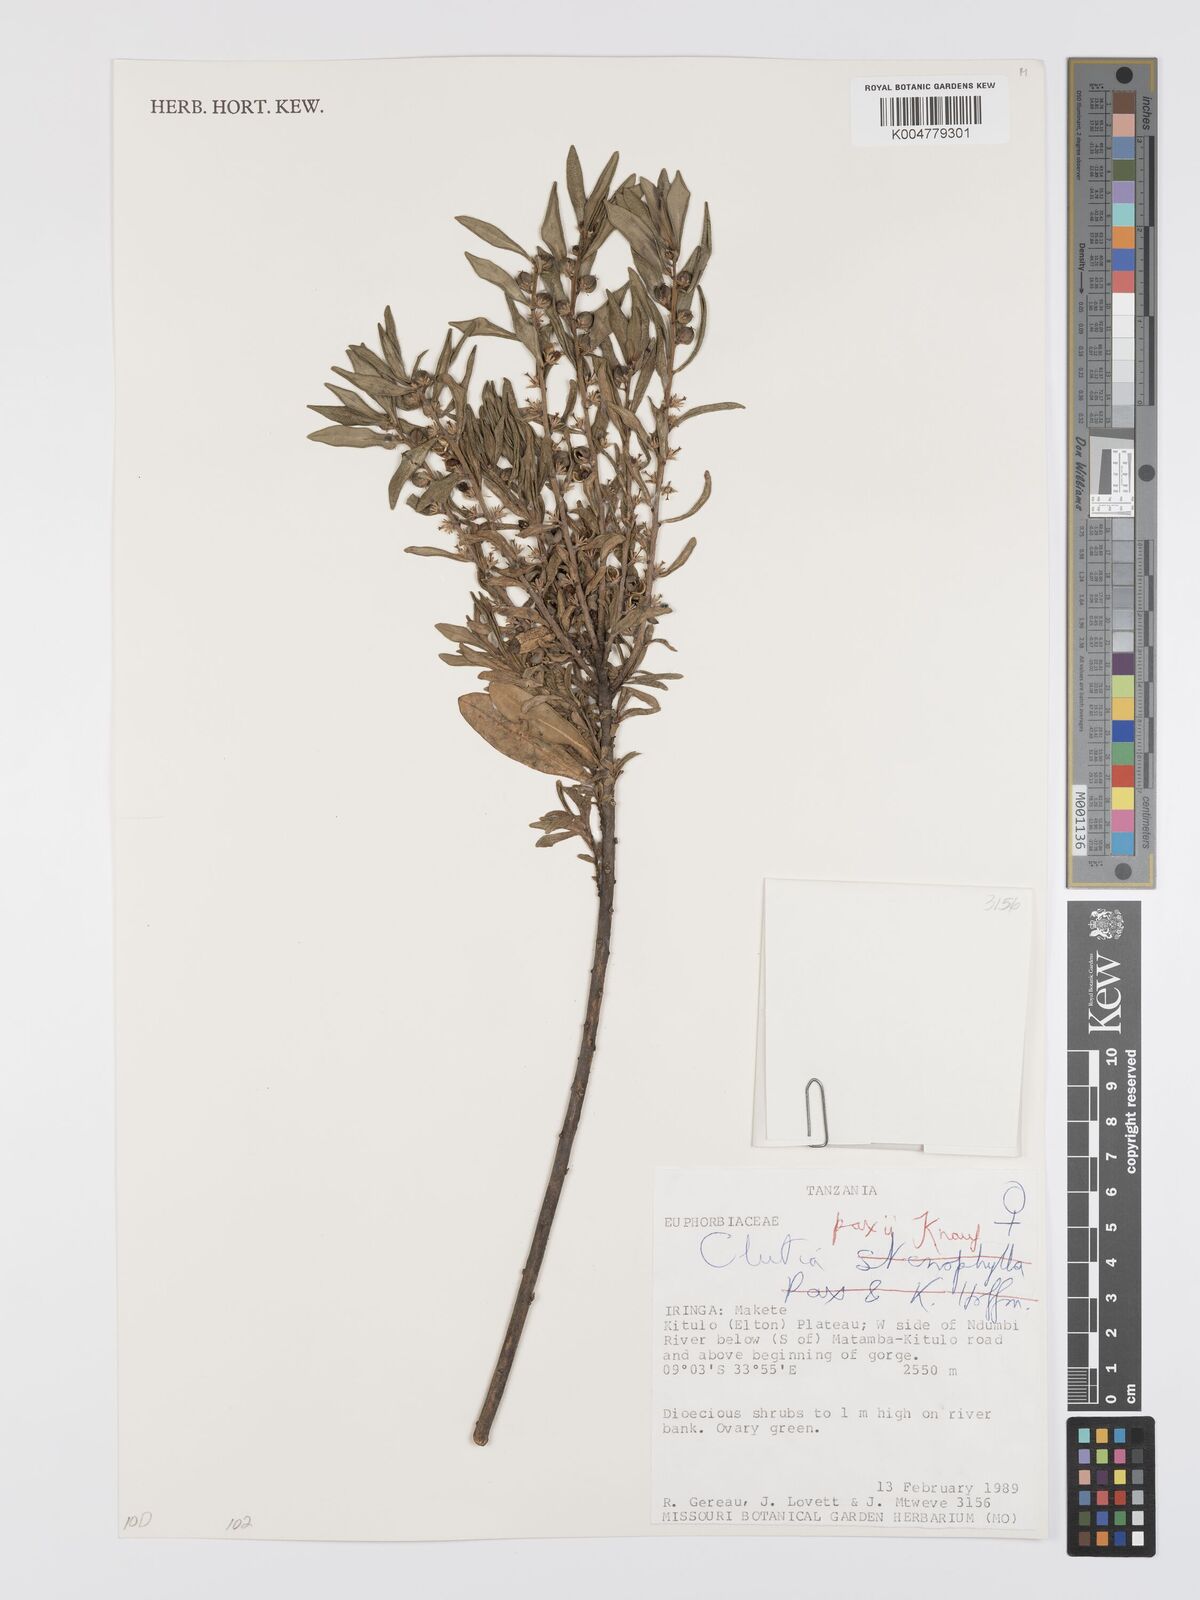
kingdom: Plantae
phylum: Tracheophyta
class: Magnoliopsida
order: Malpighiales
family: Peraceae
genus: Clutia
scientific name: Clutia paxii
